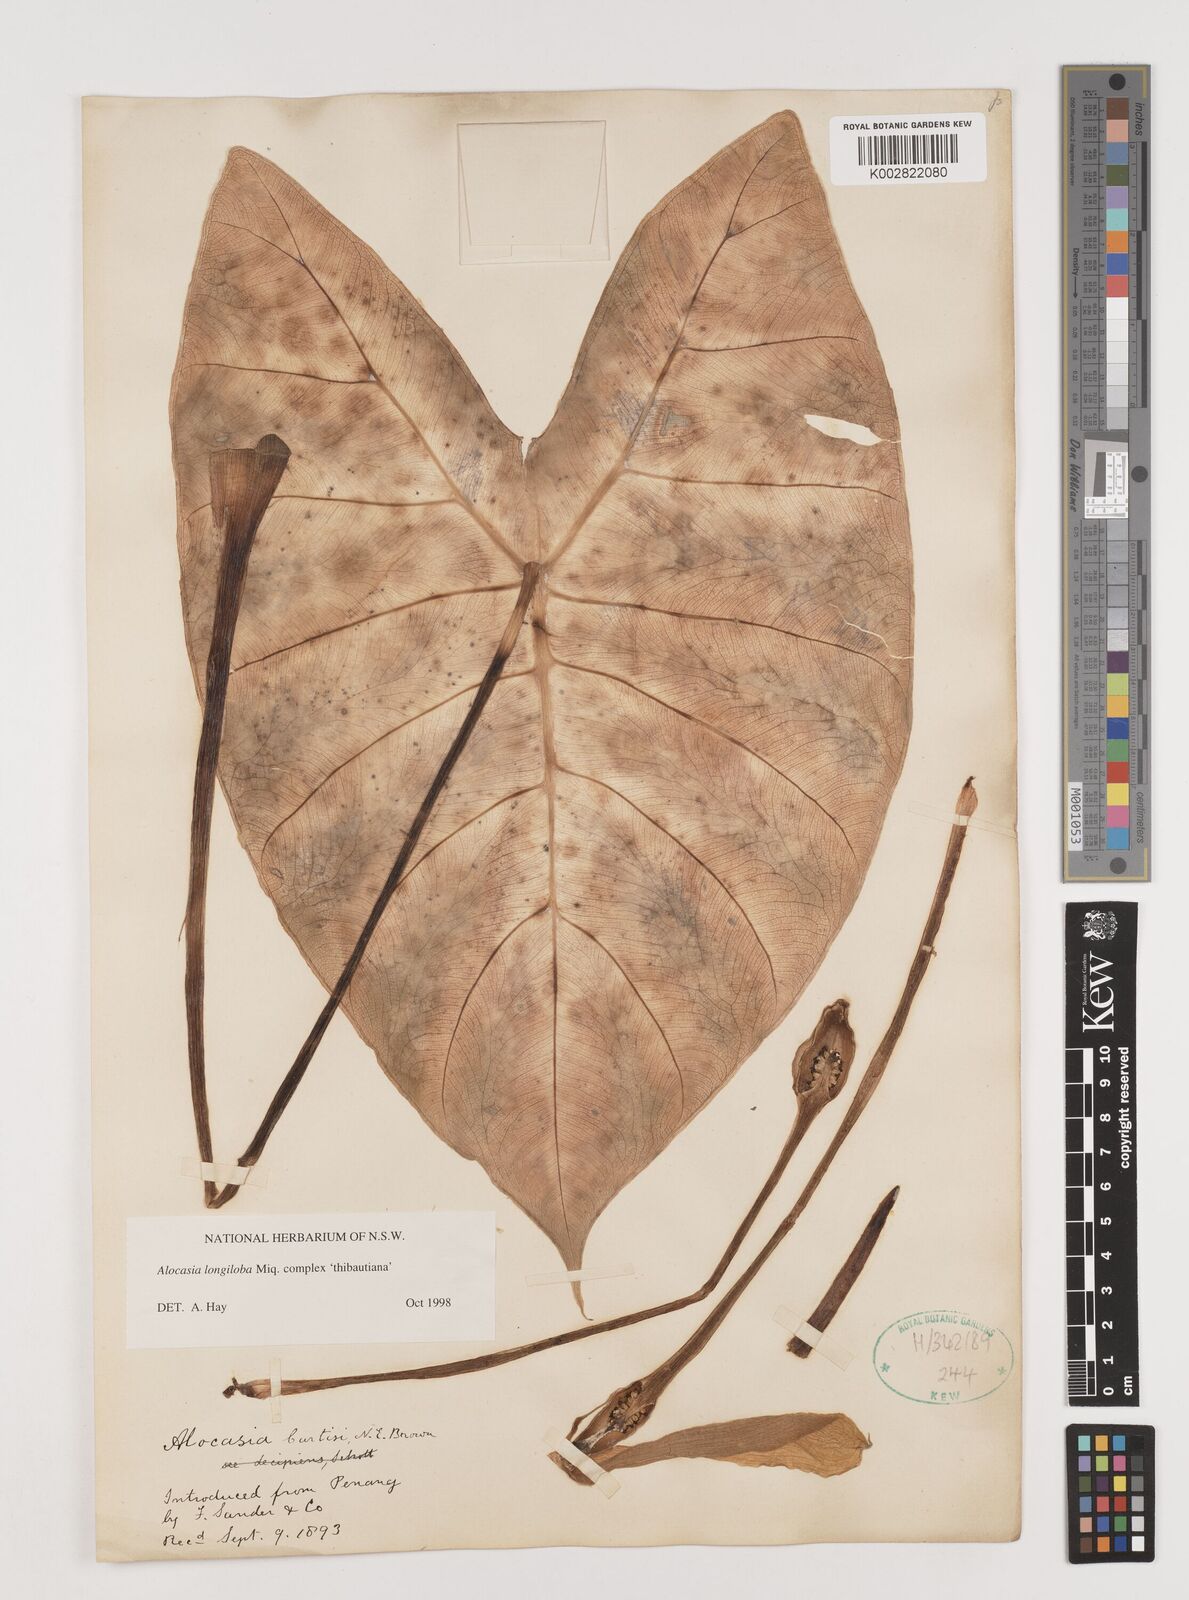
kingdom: Plantae
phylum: Tracheophyta
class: Liliopsida
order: Alismatales
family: Araceae
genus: Alocasia
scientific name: Alocasia longiloba
